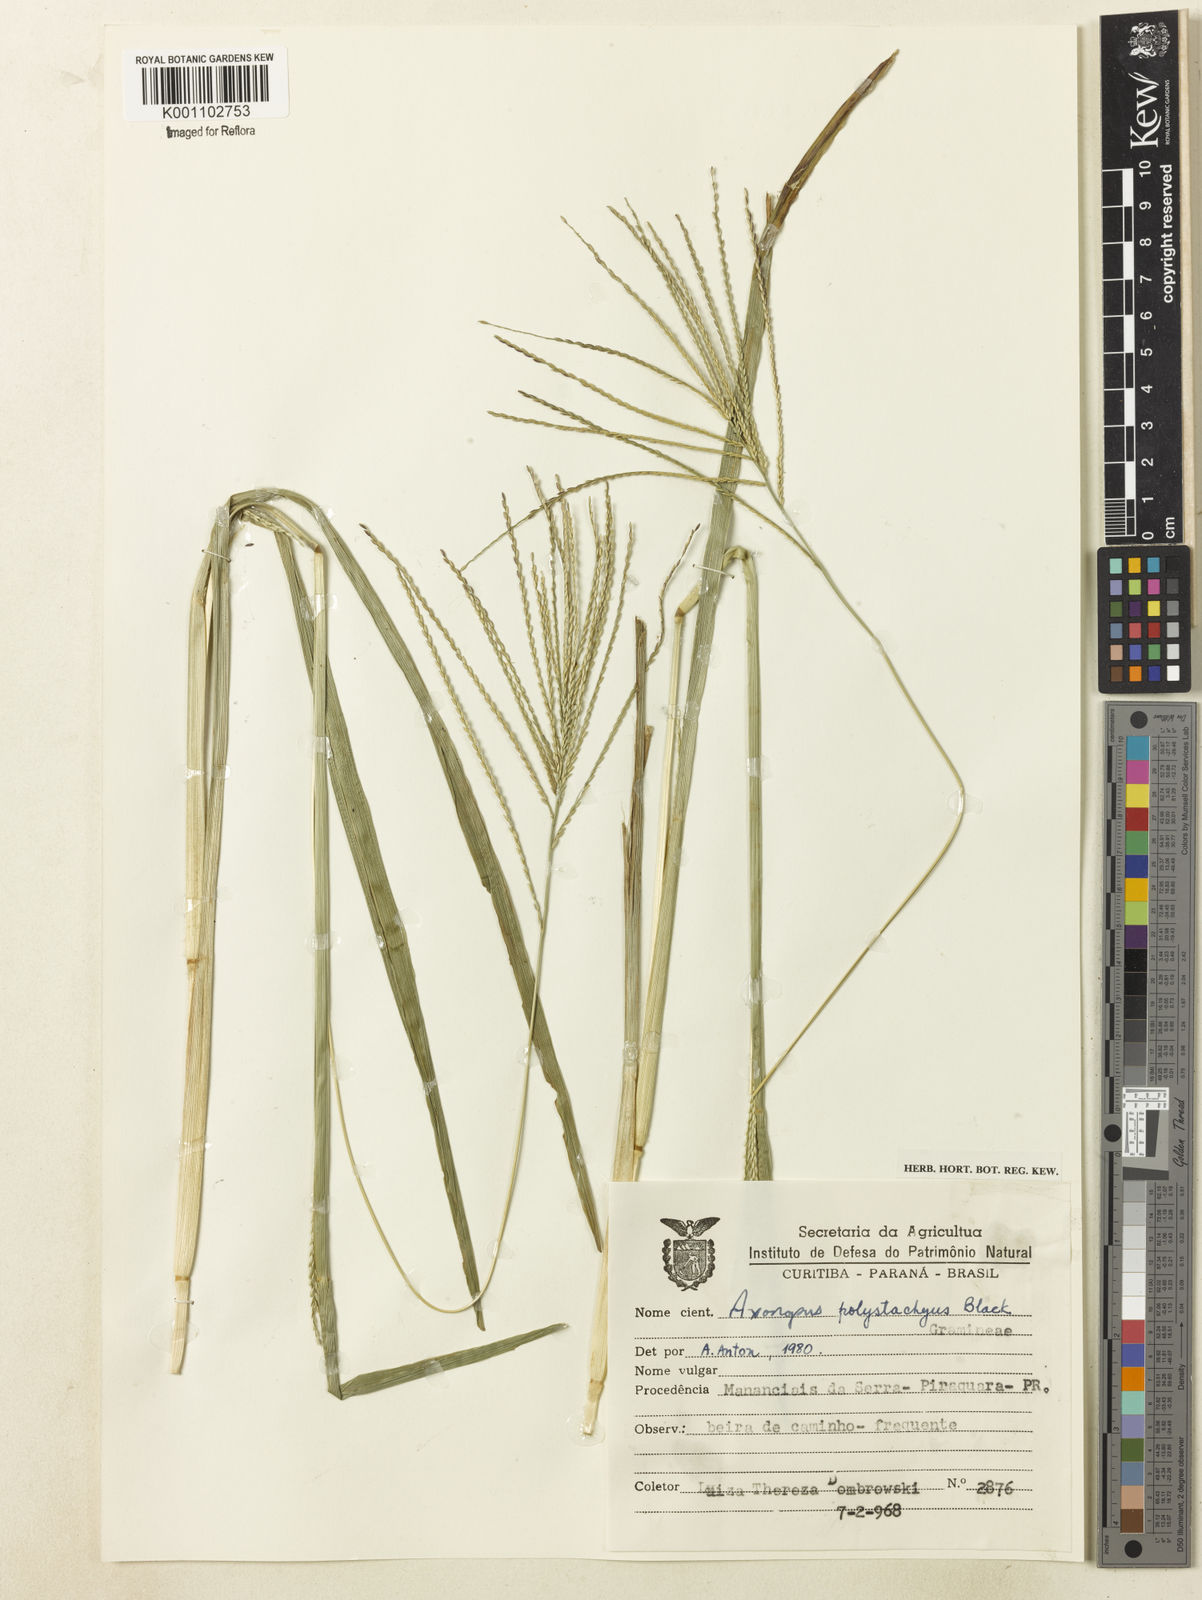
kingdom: Plantae
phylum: Tracheophyta
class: Liliopsida
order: Poales
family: Poaceae
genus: Axonopus
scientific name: Axonopus polystachyus
